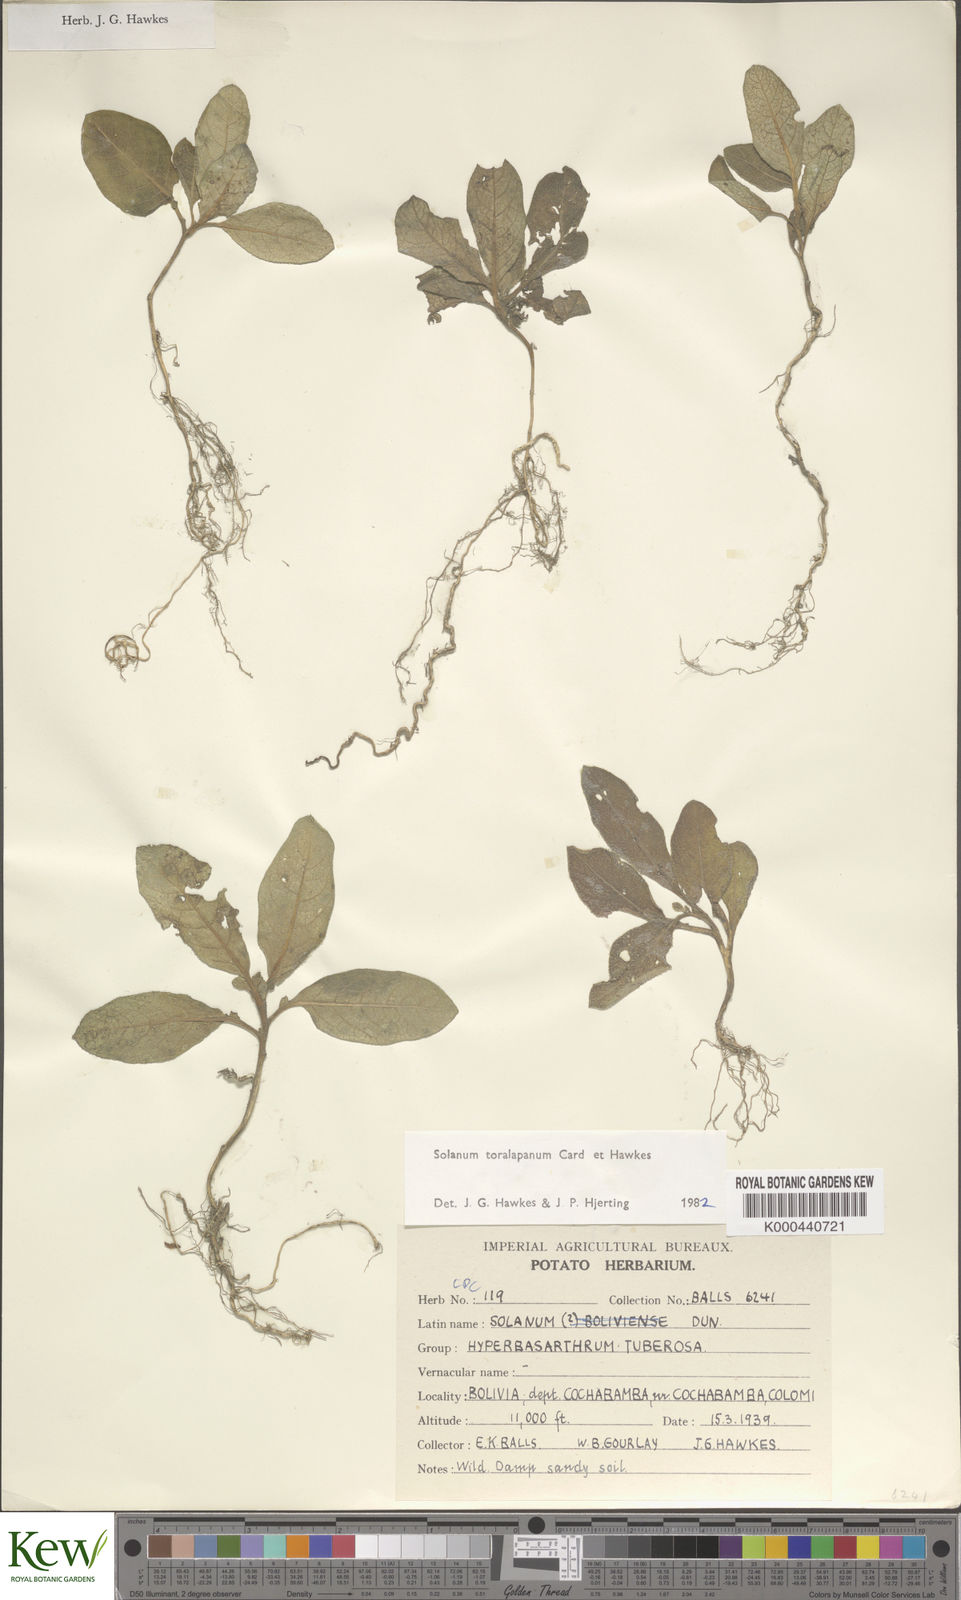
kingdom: Plantae
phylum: Tracheophyta
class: Magnoliopsida
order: Solanales
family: Solanaceae
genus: Solanum
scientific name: Solanum boliviense
